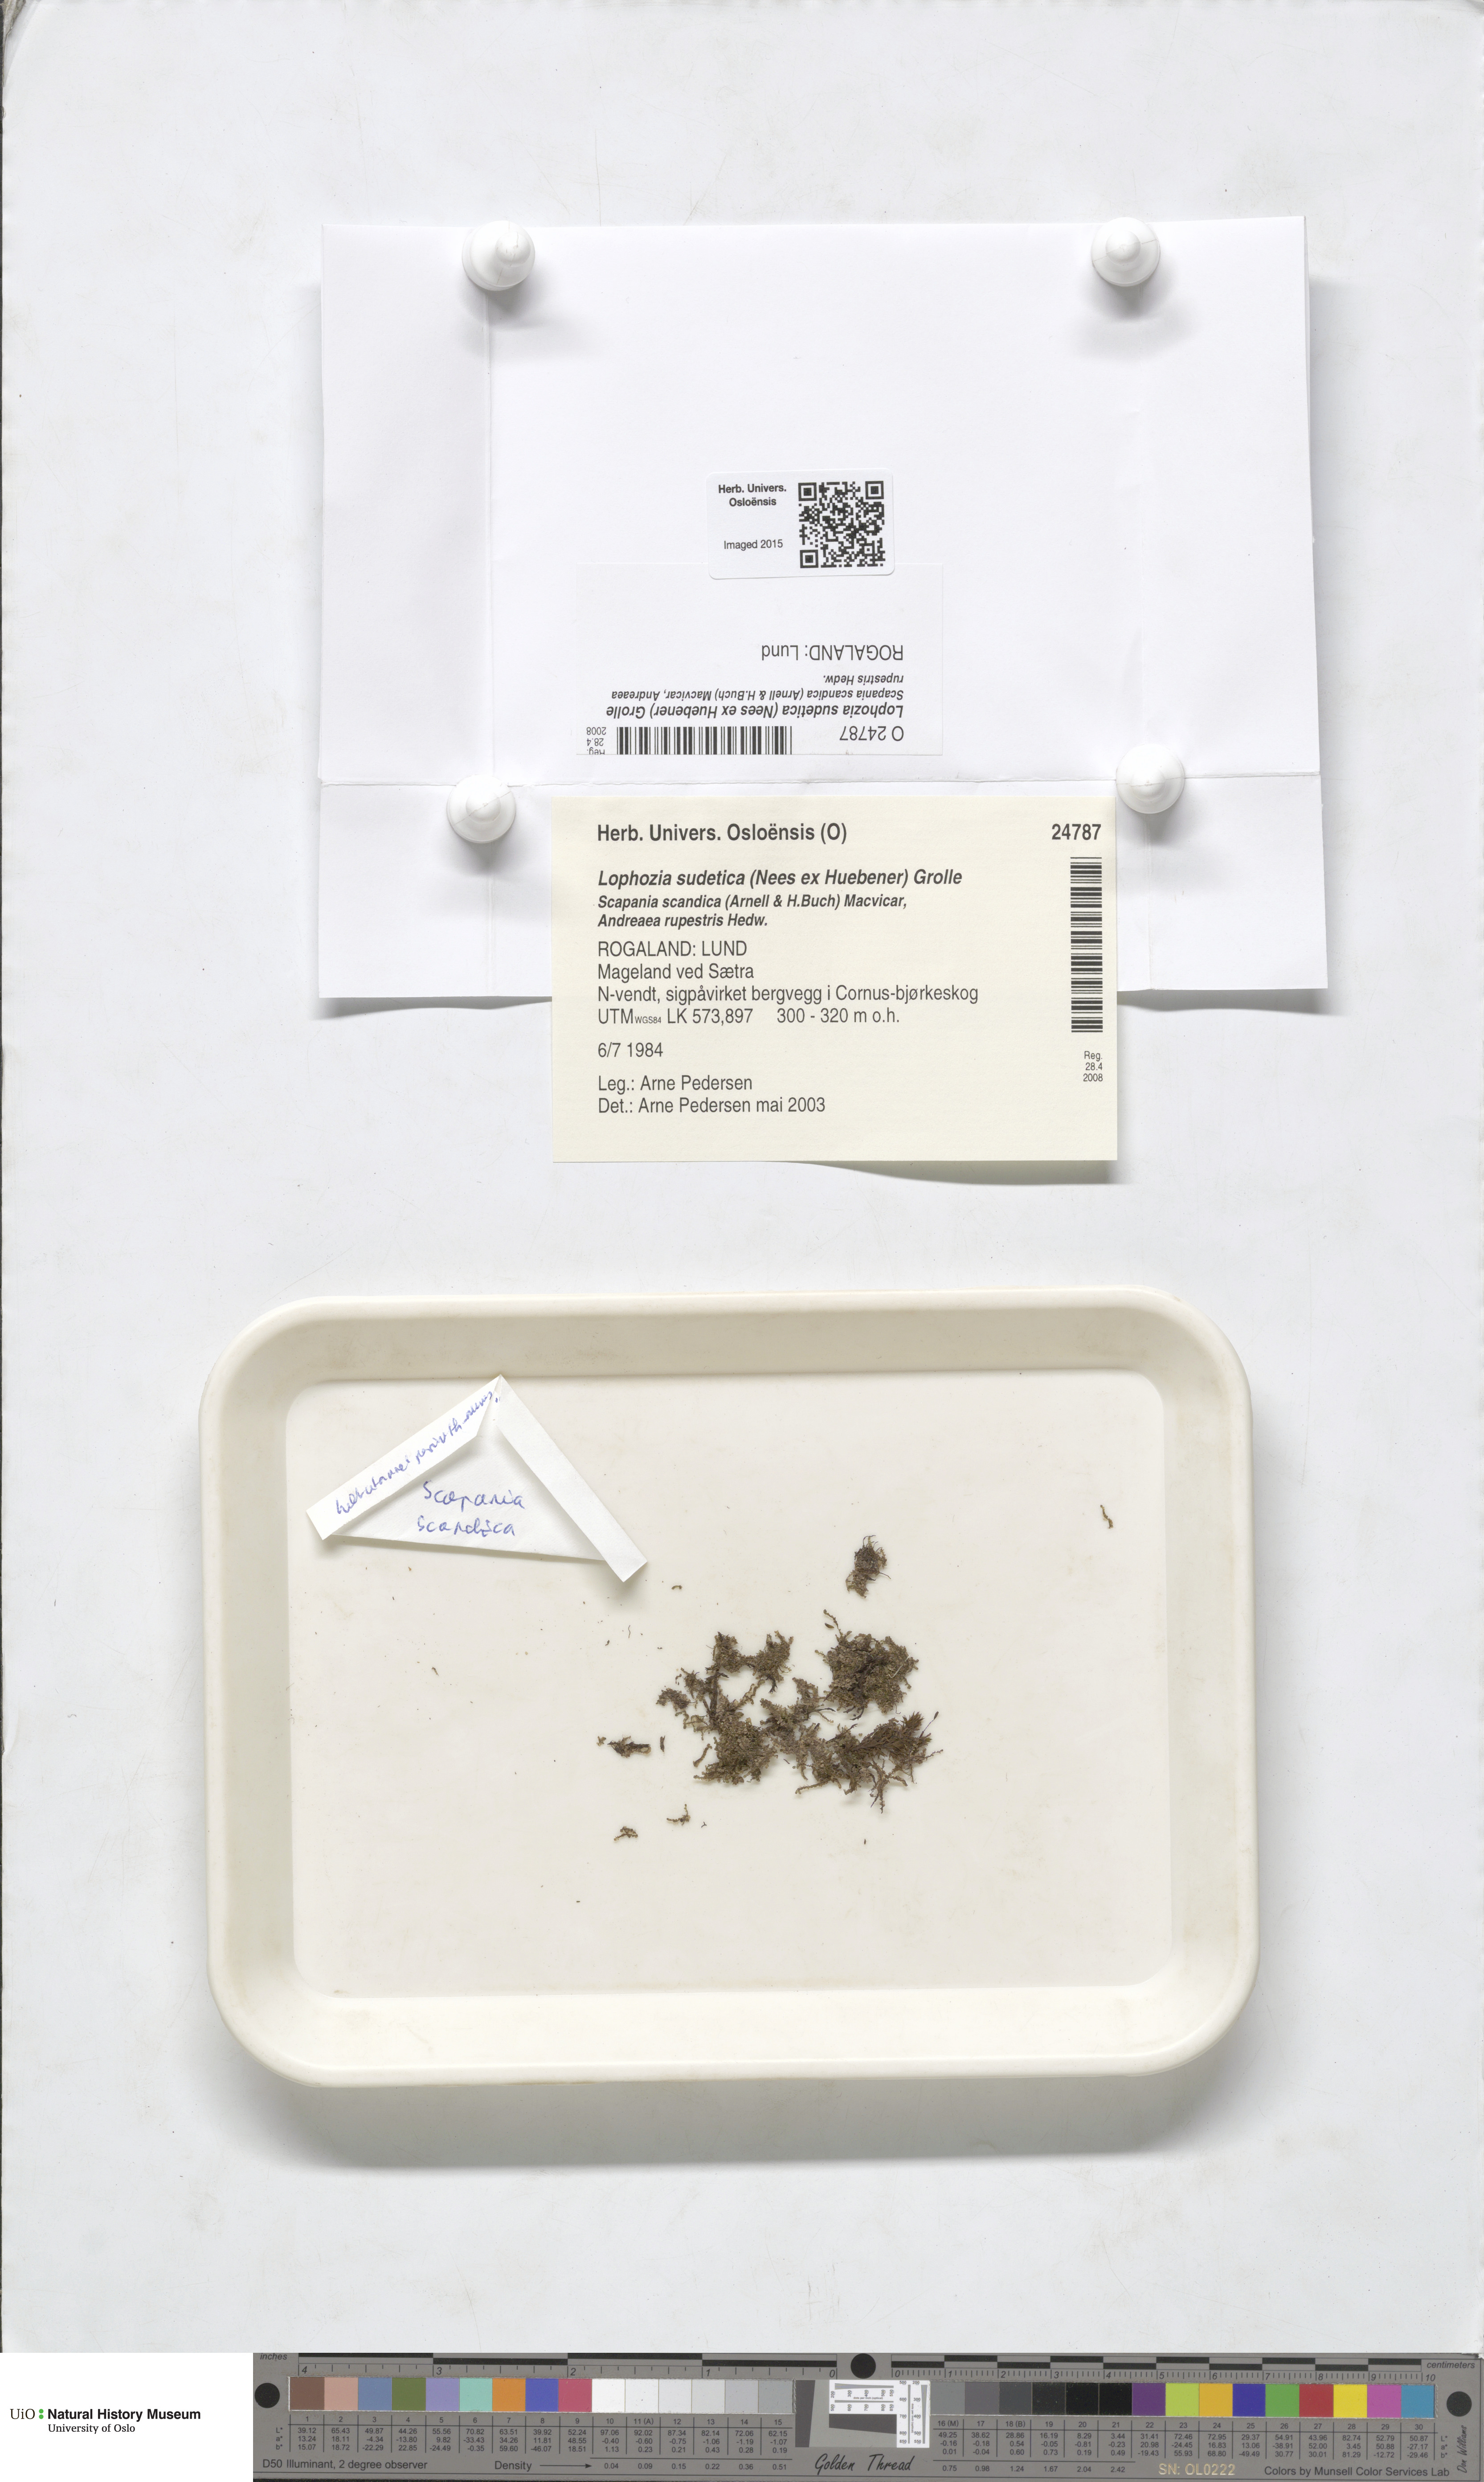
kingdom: Plantae
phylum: Marchantiophyta
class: Jungermanniopsida
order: Jungermanniales
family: Anastrophyllaceae
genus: Barbilophozia
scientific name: Barbilophozia sudetica
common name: Hill notchwort
